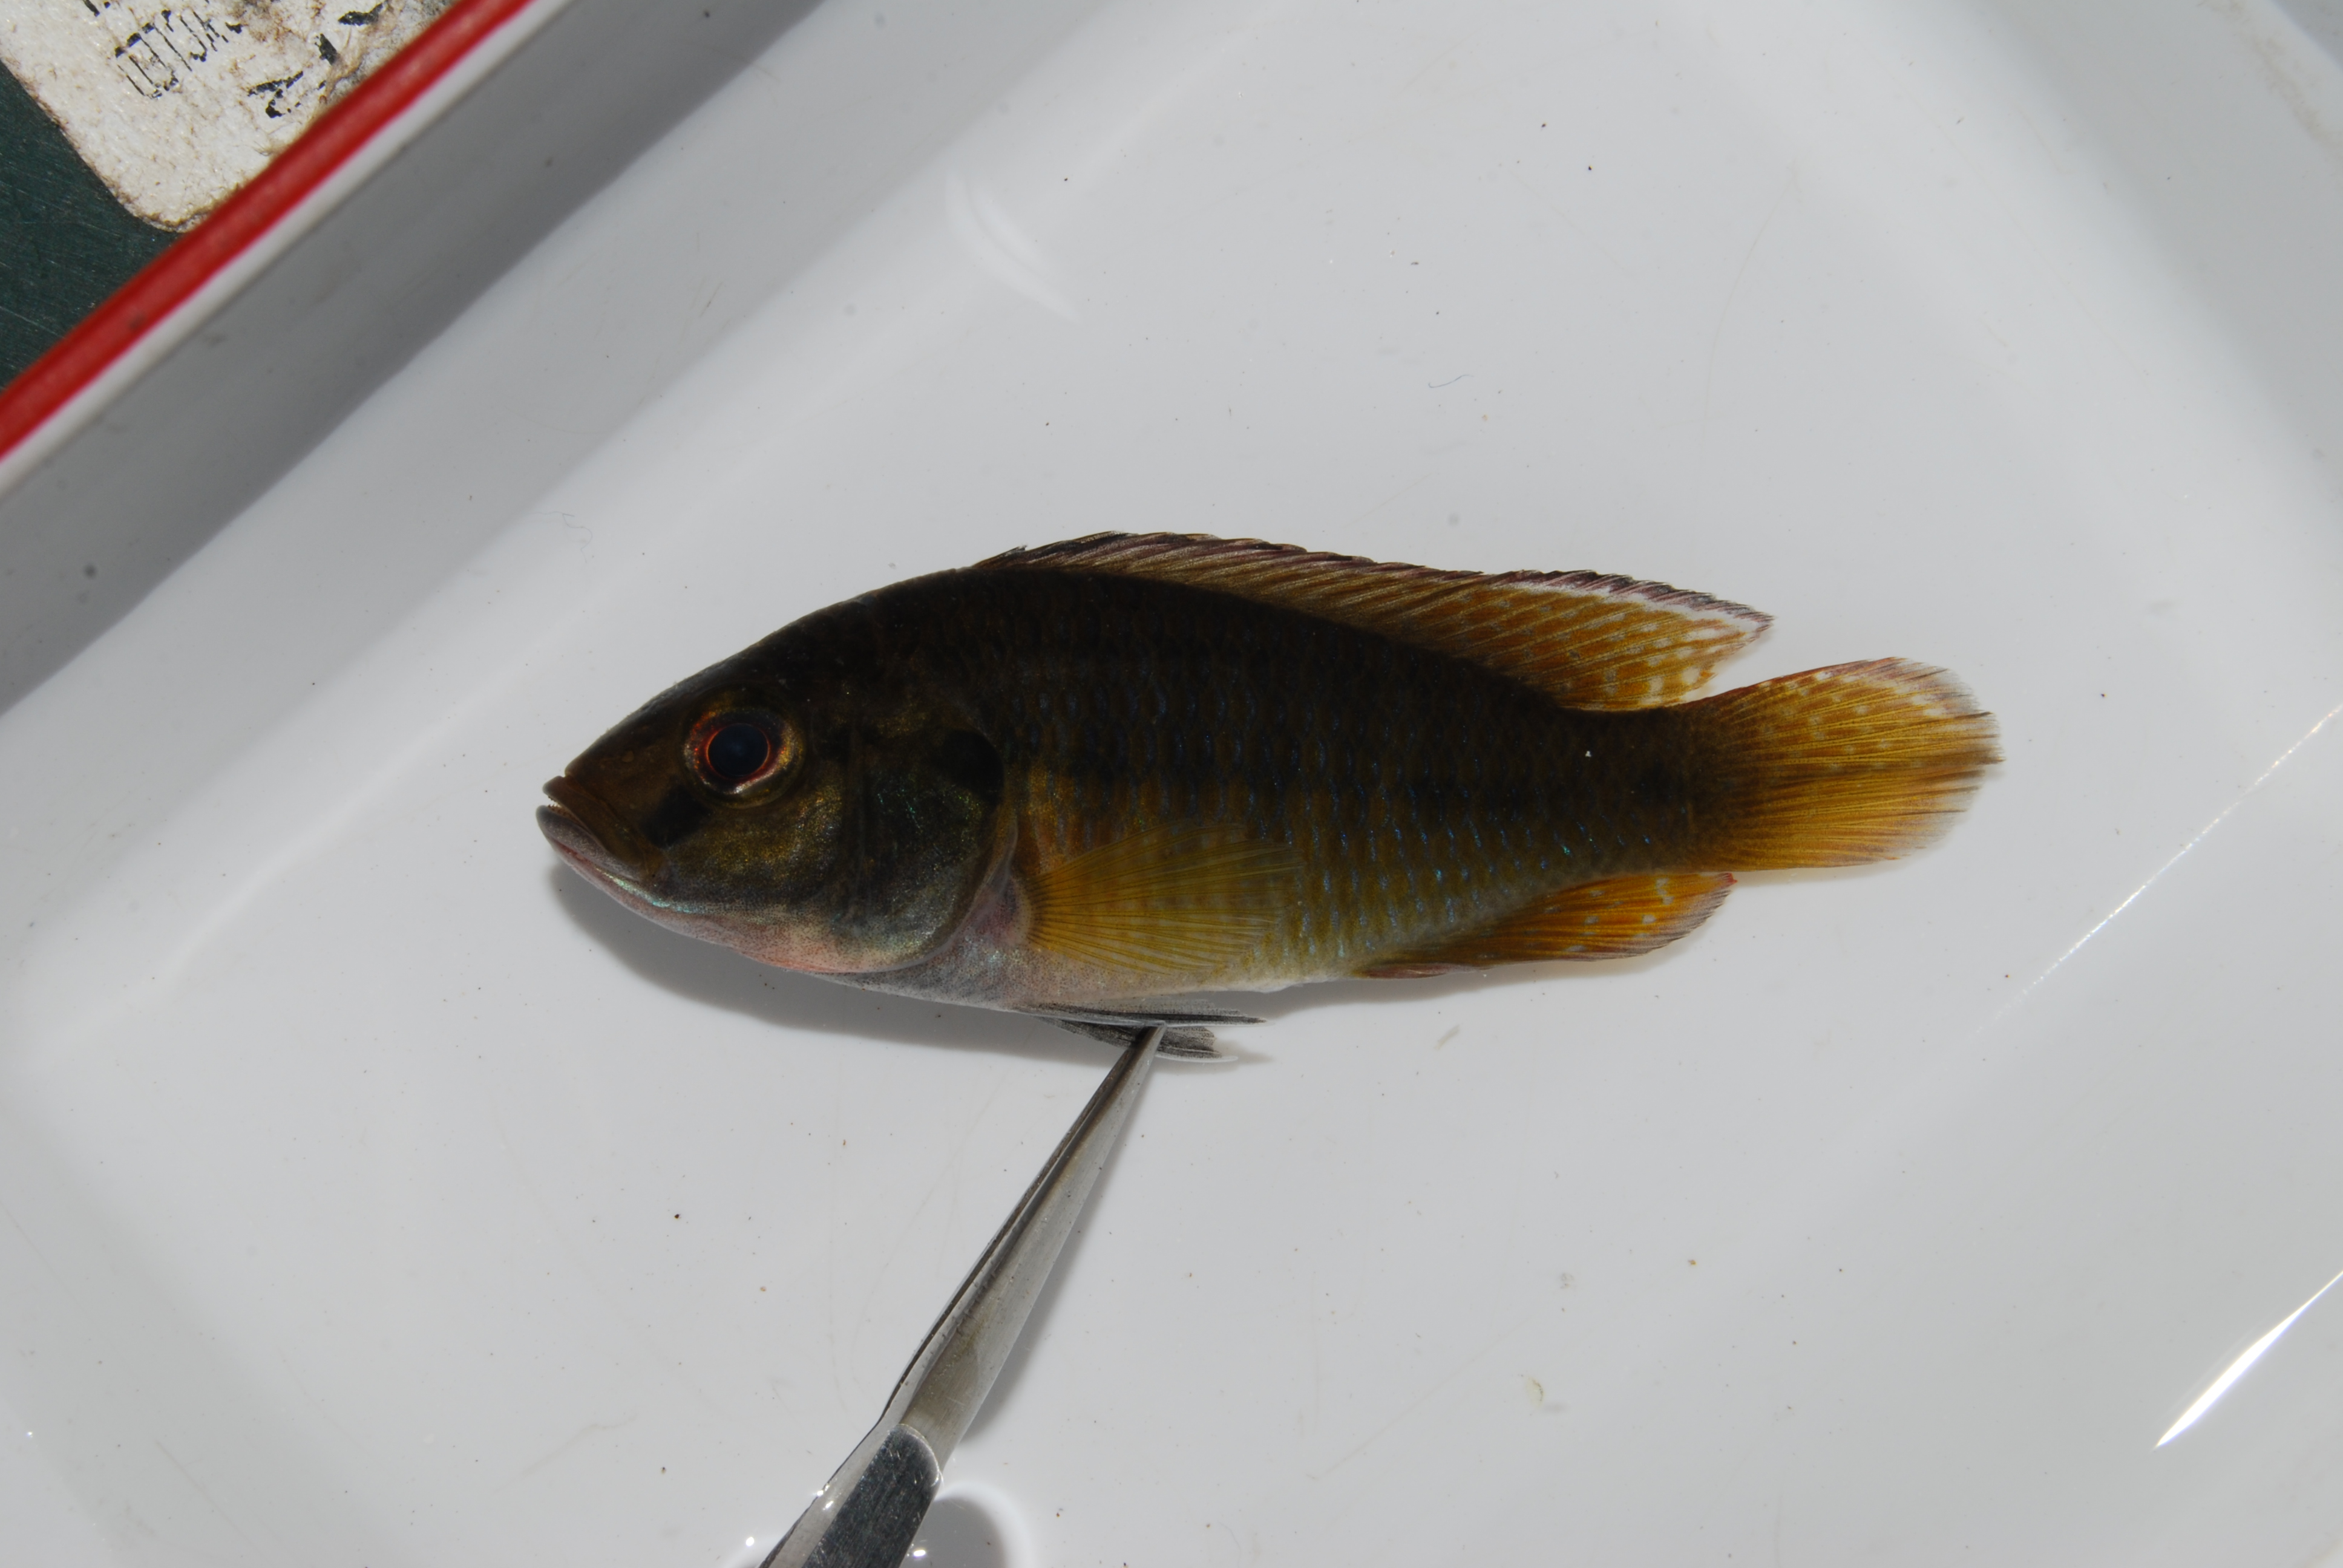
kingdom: Animalia
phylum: Chordata
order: Perciformes
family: Cichlidae
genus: Pseudocrenilabrus
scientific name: Pseudocrenilabrus philander
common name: Southern mouthbrooder
